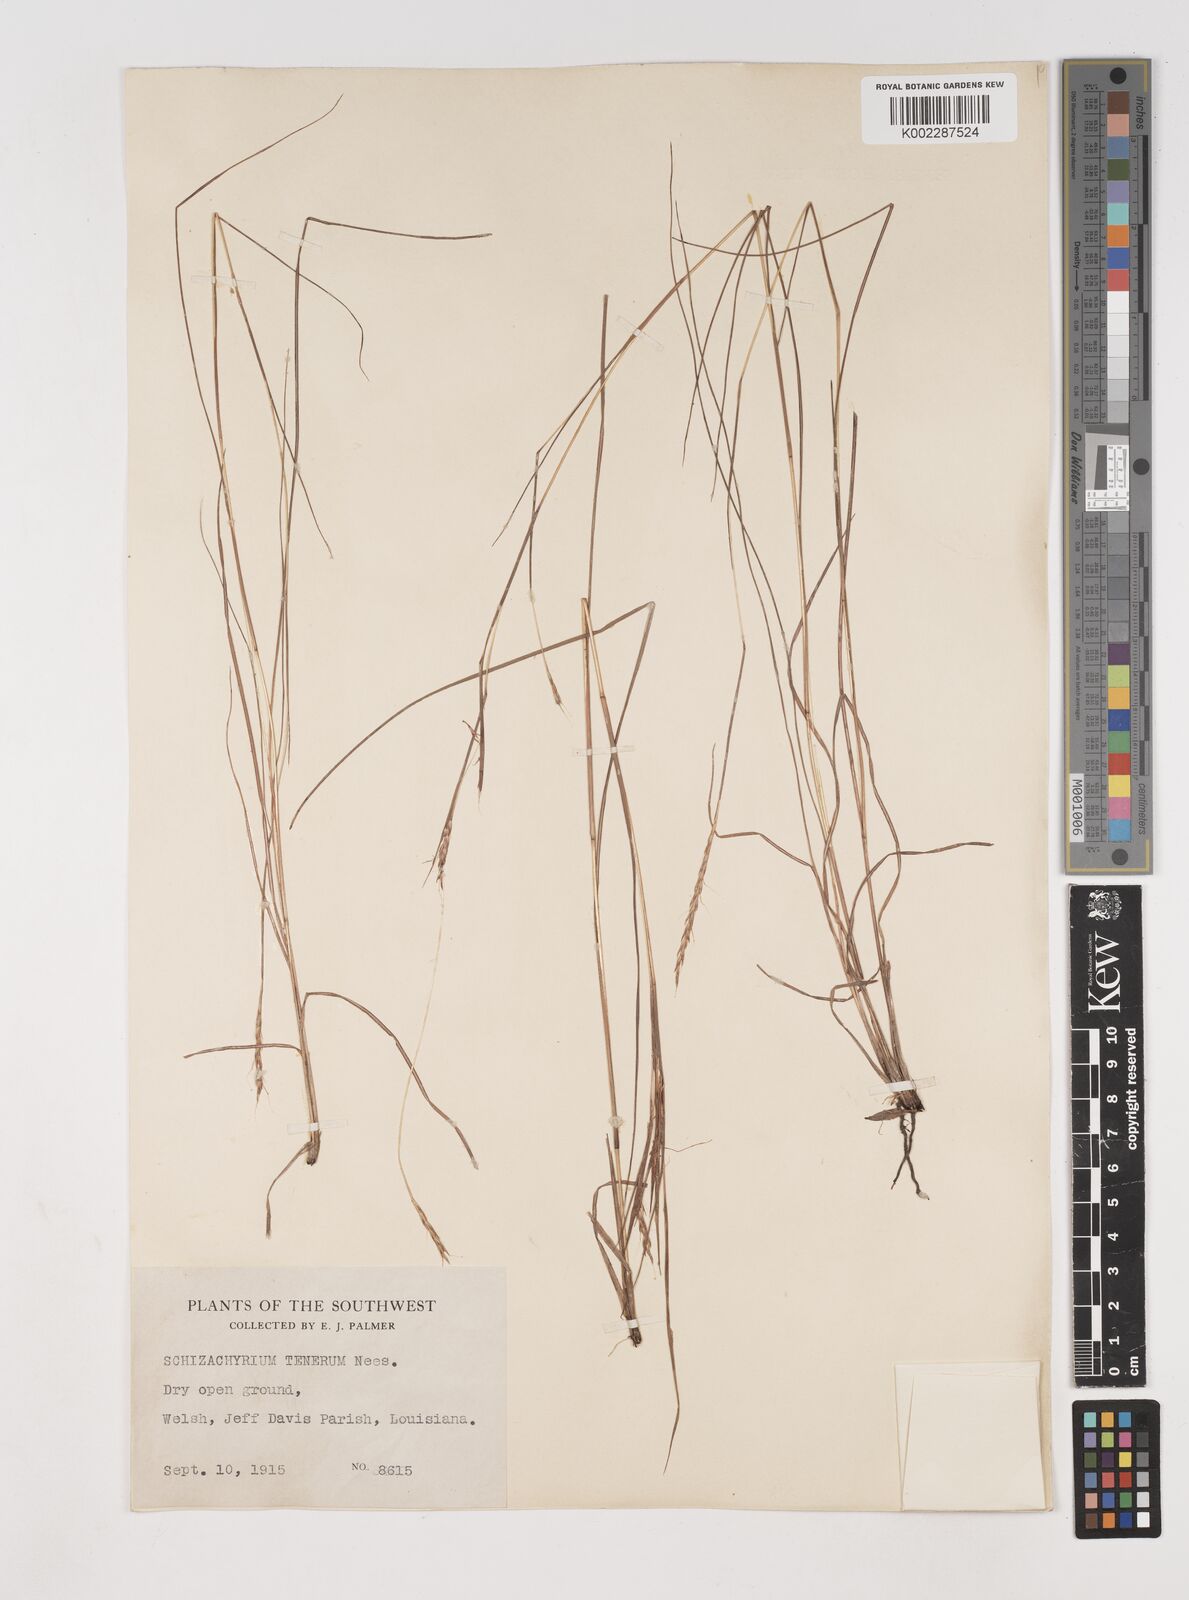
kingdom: Plantae
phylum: Tracheophyta
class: Liliopsida
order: Poales
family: Poaceae
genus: Andropogon
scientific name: Andropogon tener
